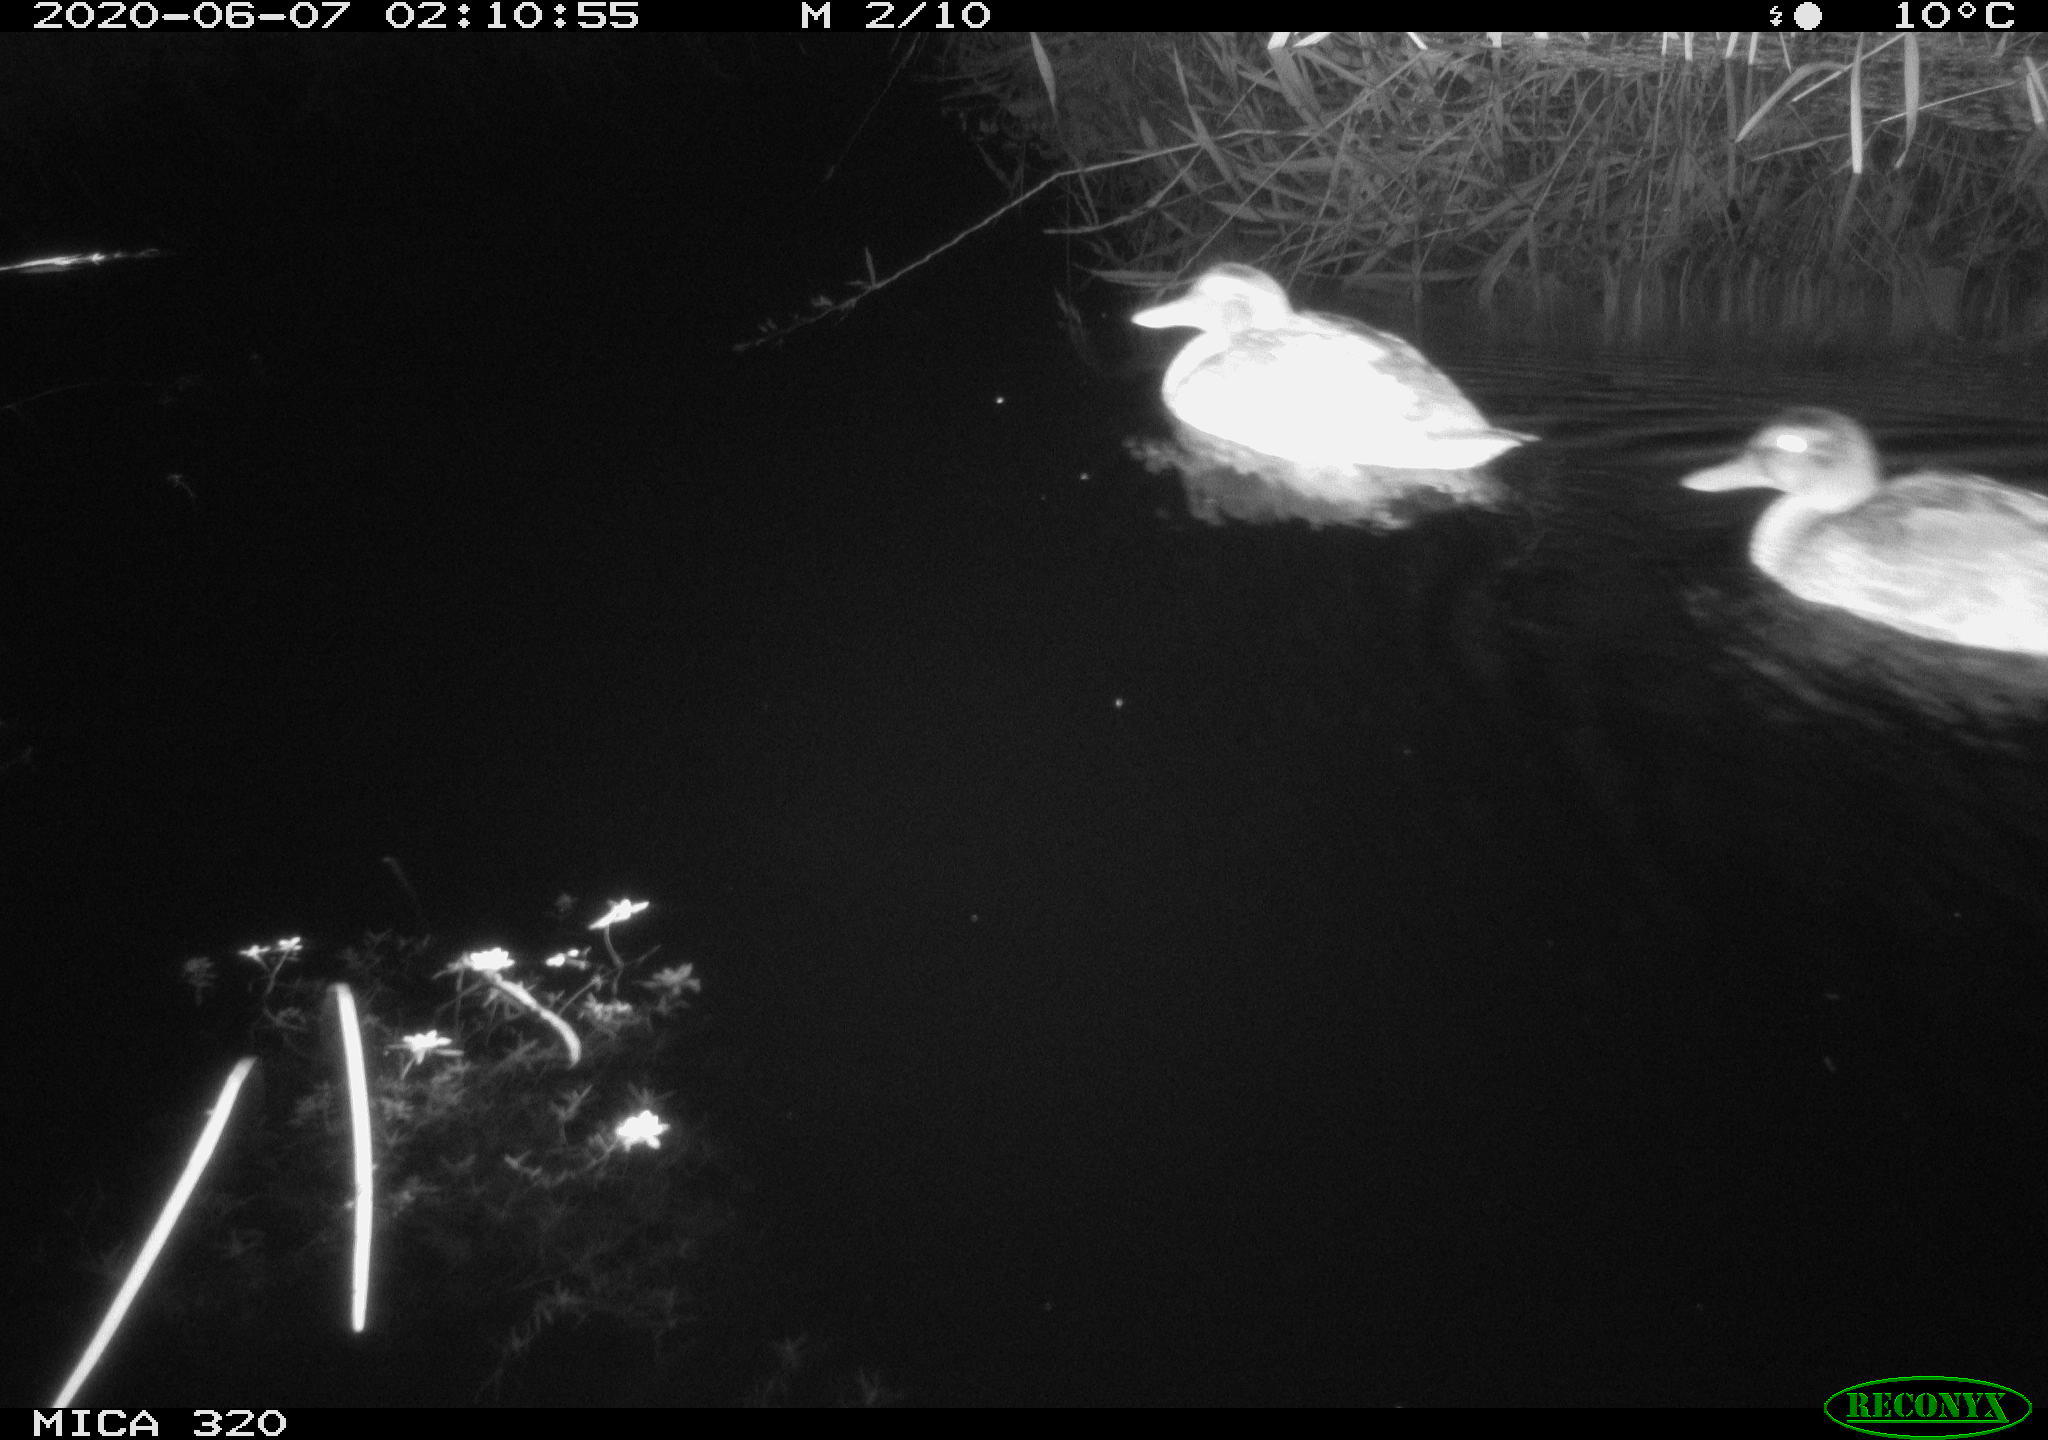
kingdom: Animalia
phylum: Chordata
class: Aves
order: Anseriformes
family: Anatidae
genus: Anas
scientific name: Anas platyrhynchos
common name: Mallard
